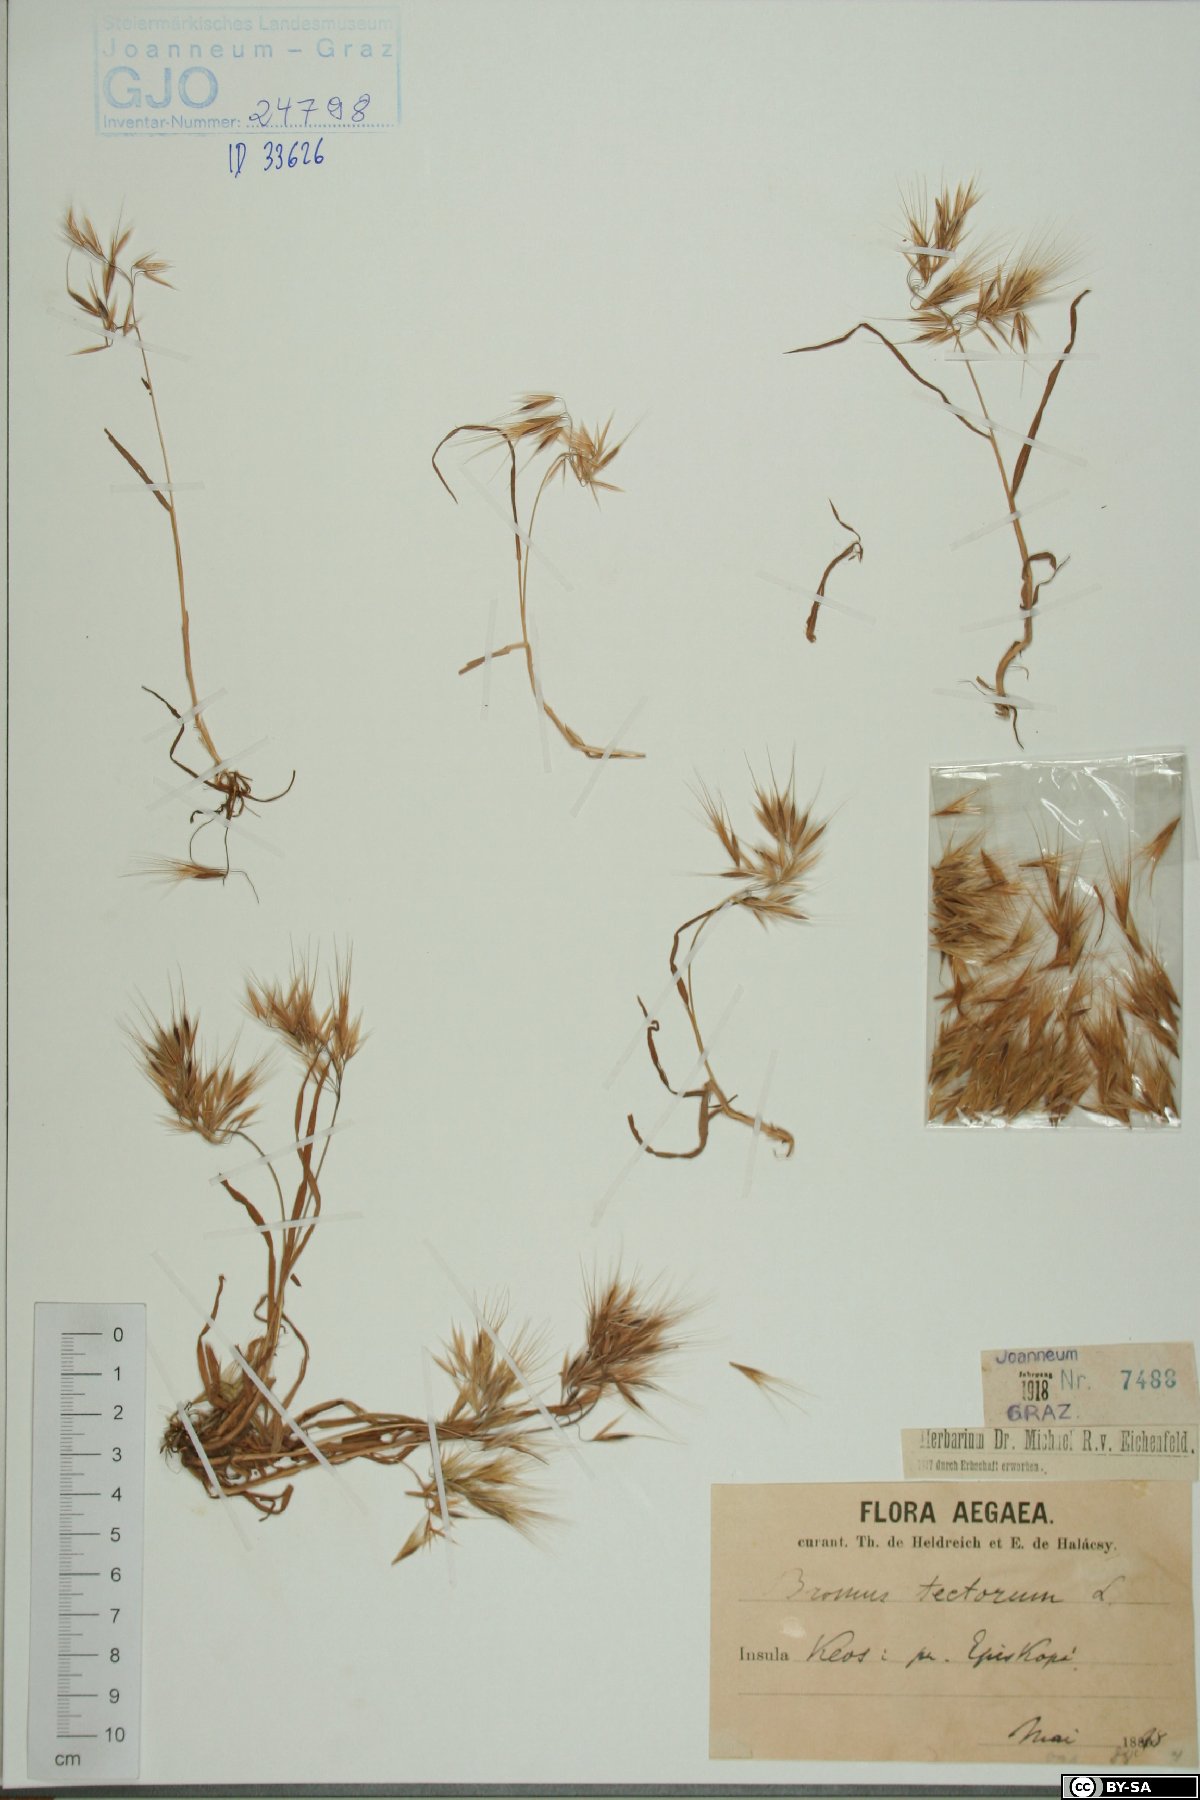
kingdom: Plantae
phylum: Tracheophyta
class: Liliopsida
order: Poales
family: Poaceae
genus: Bromus
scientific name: Bromus tectorum
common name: Cheatgrass
